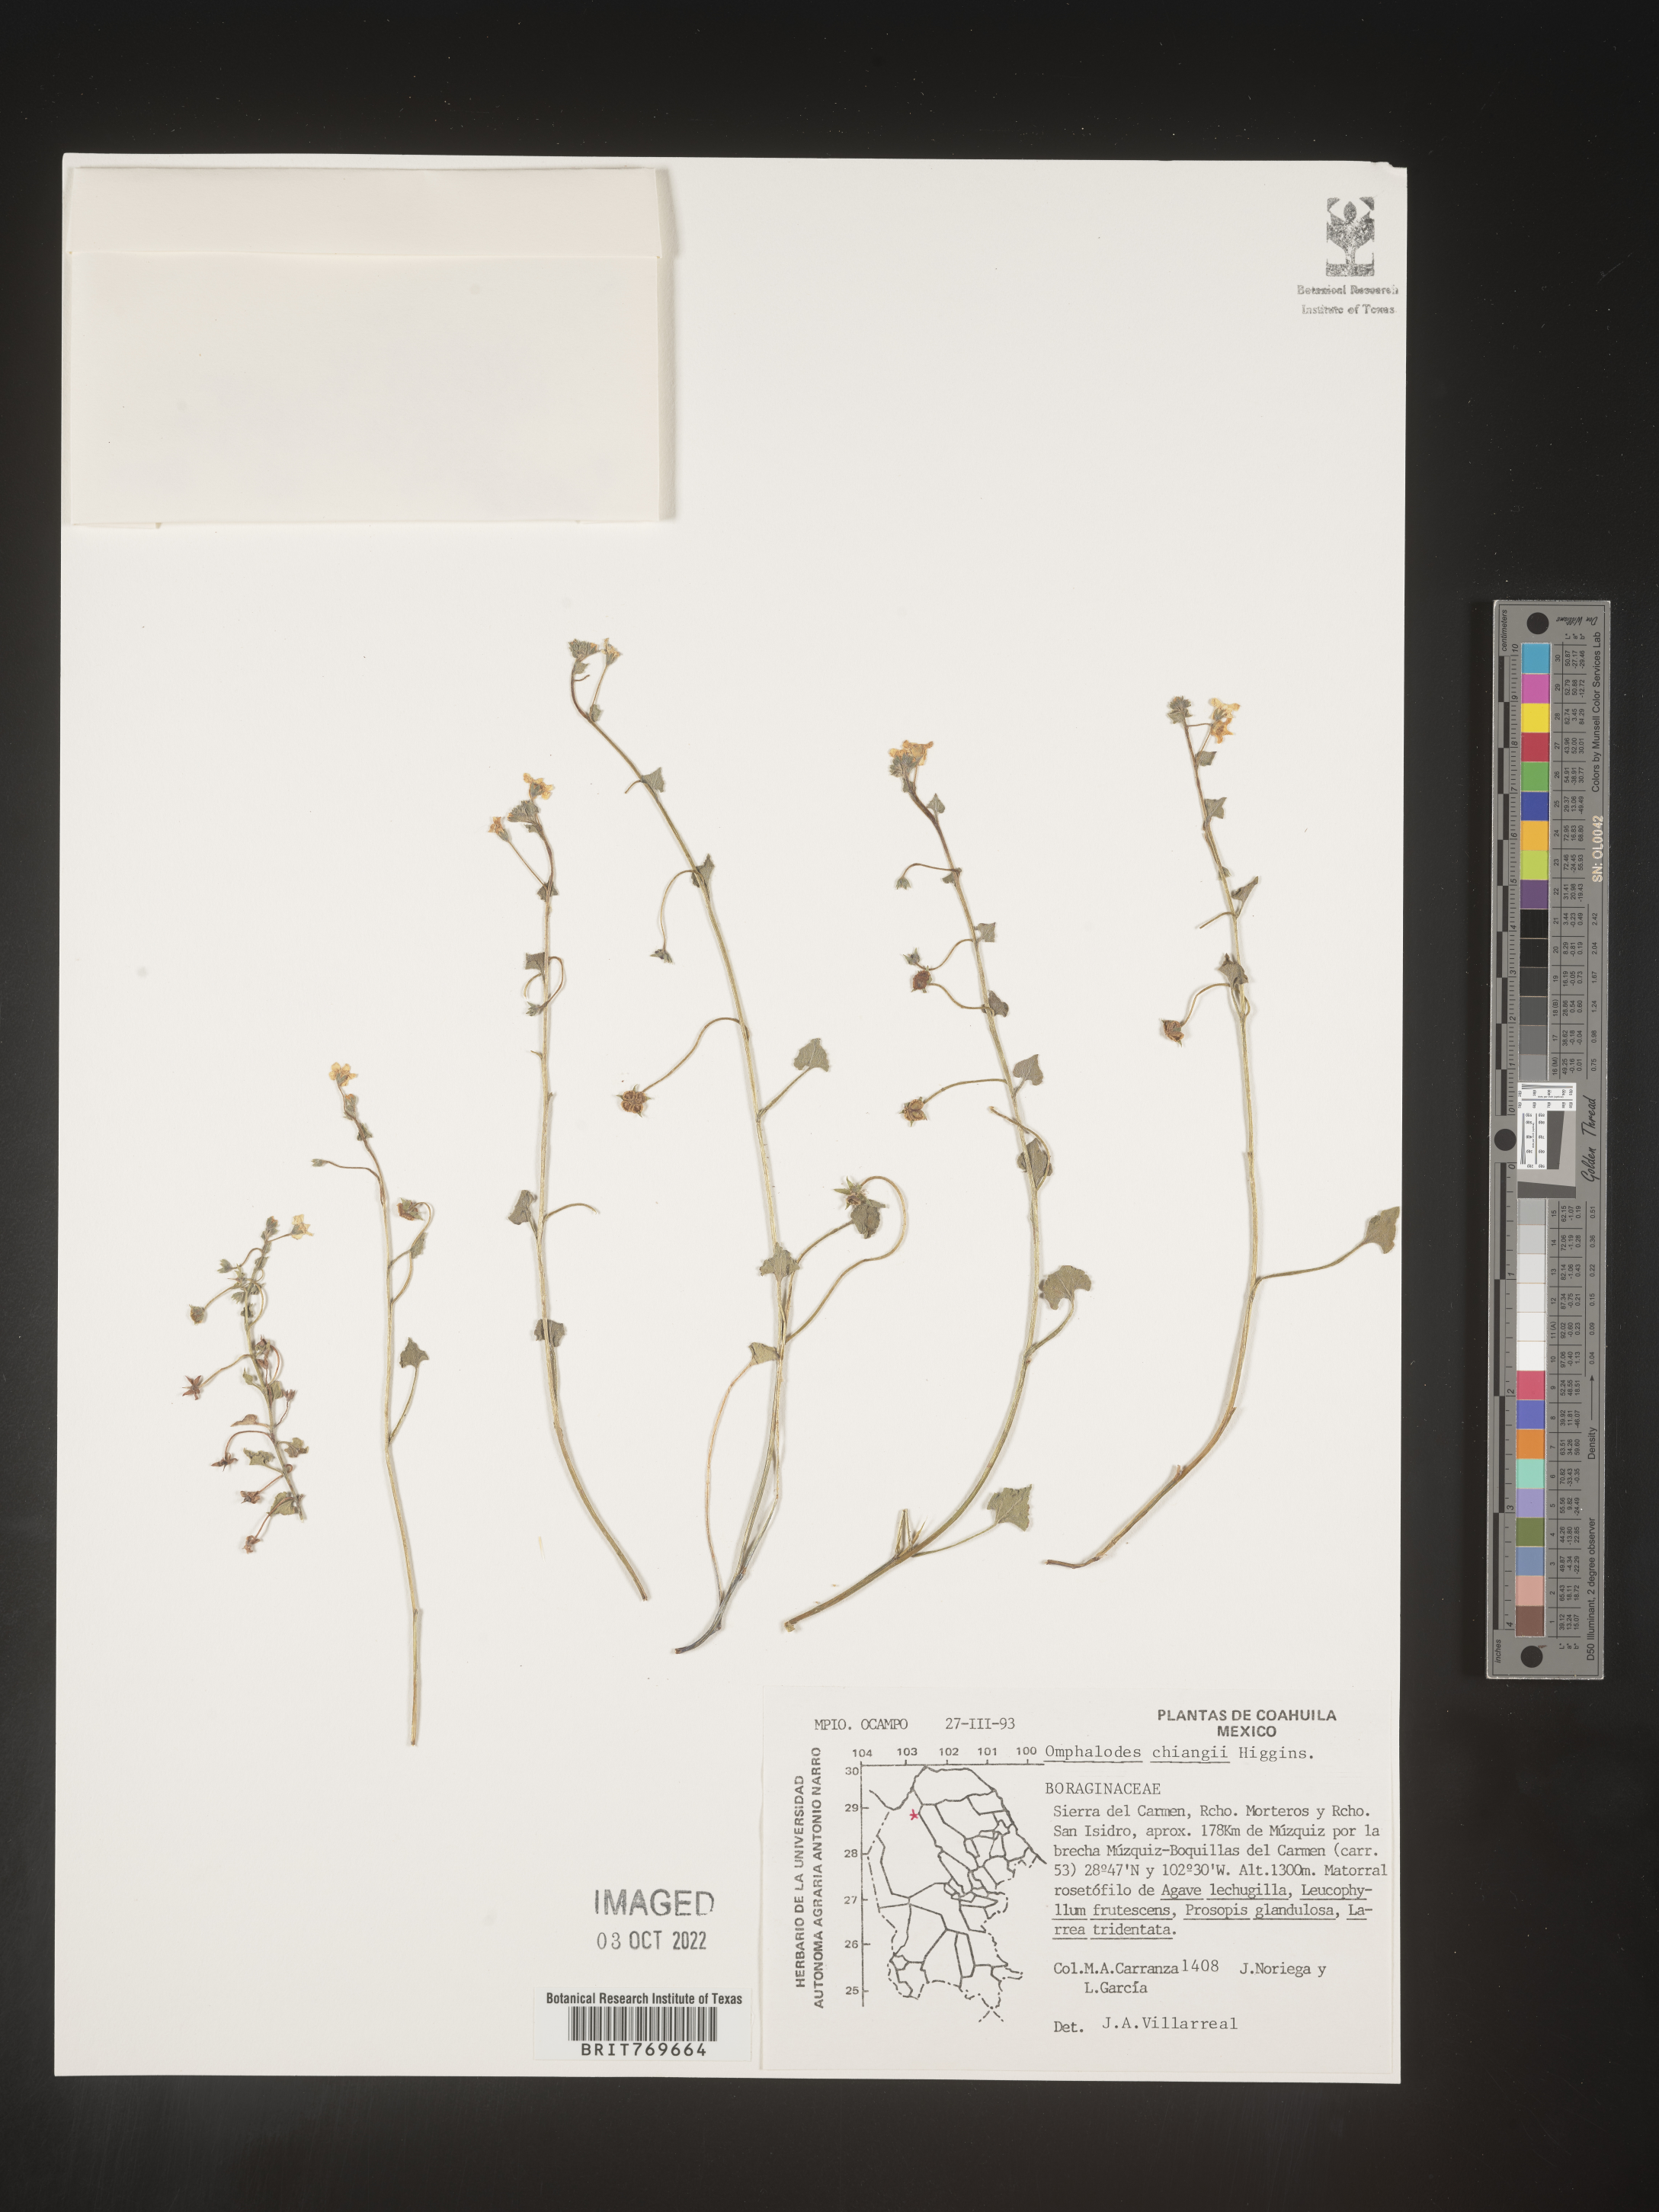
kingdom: Plantae
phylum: Tracheophyta
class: Magnoliopsida
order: Boraginales
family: Boraginaceae
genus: Omphalodes
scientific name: Omphalodes
